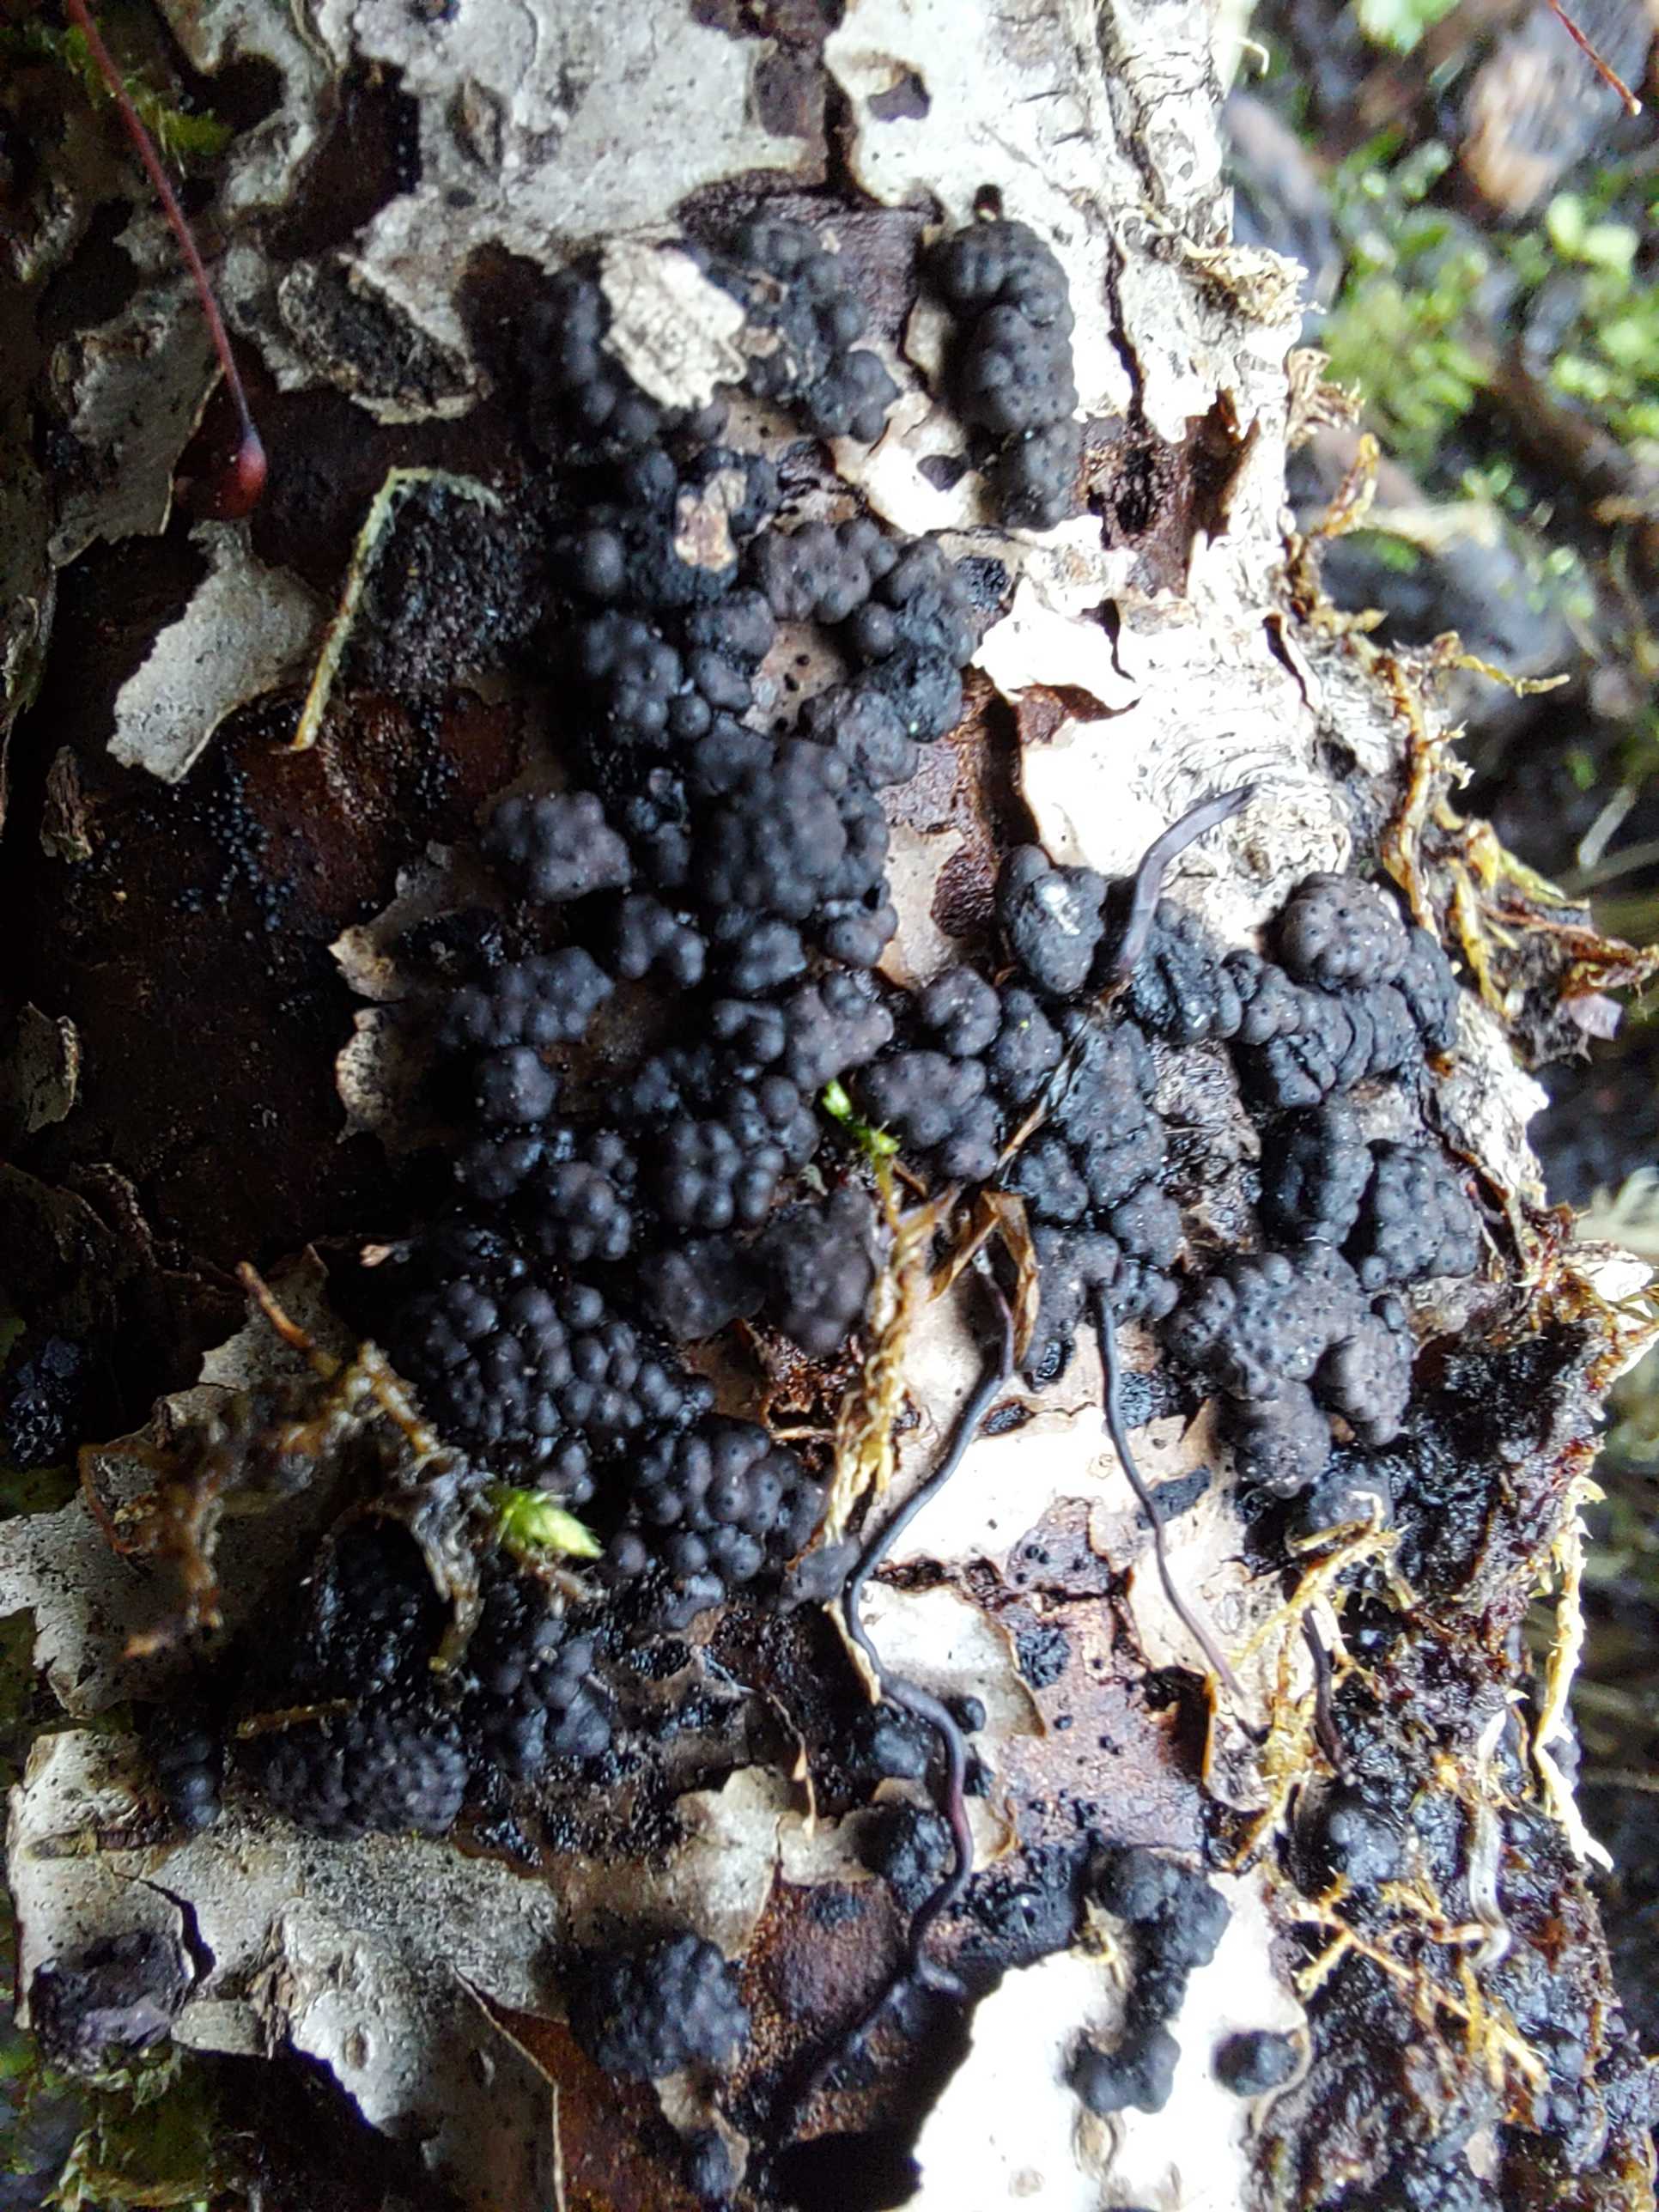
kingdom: Fungi
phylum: Ascomycota
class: Sordariomycetes
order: Xylariales
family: Hypoxylaceae
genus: Jackrogersella
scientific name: Jackrogersella cohaerens
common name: sammenflydende kulbær
